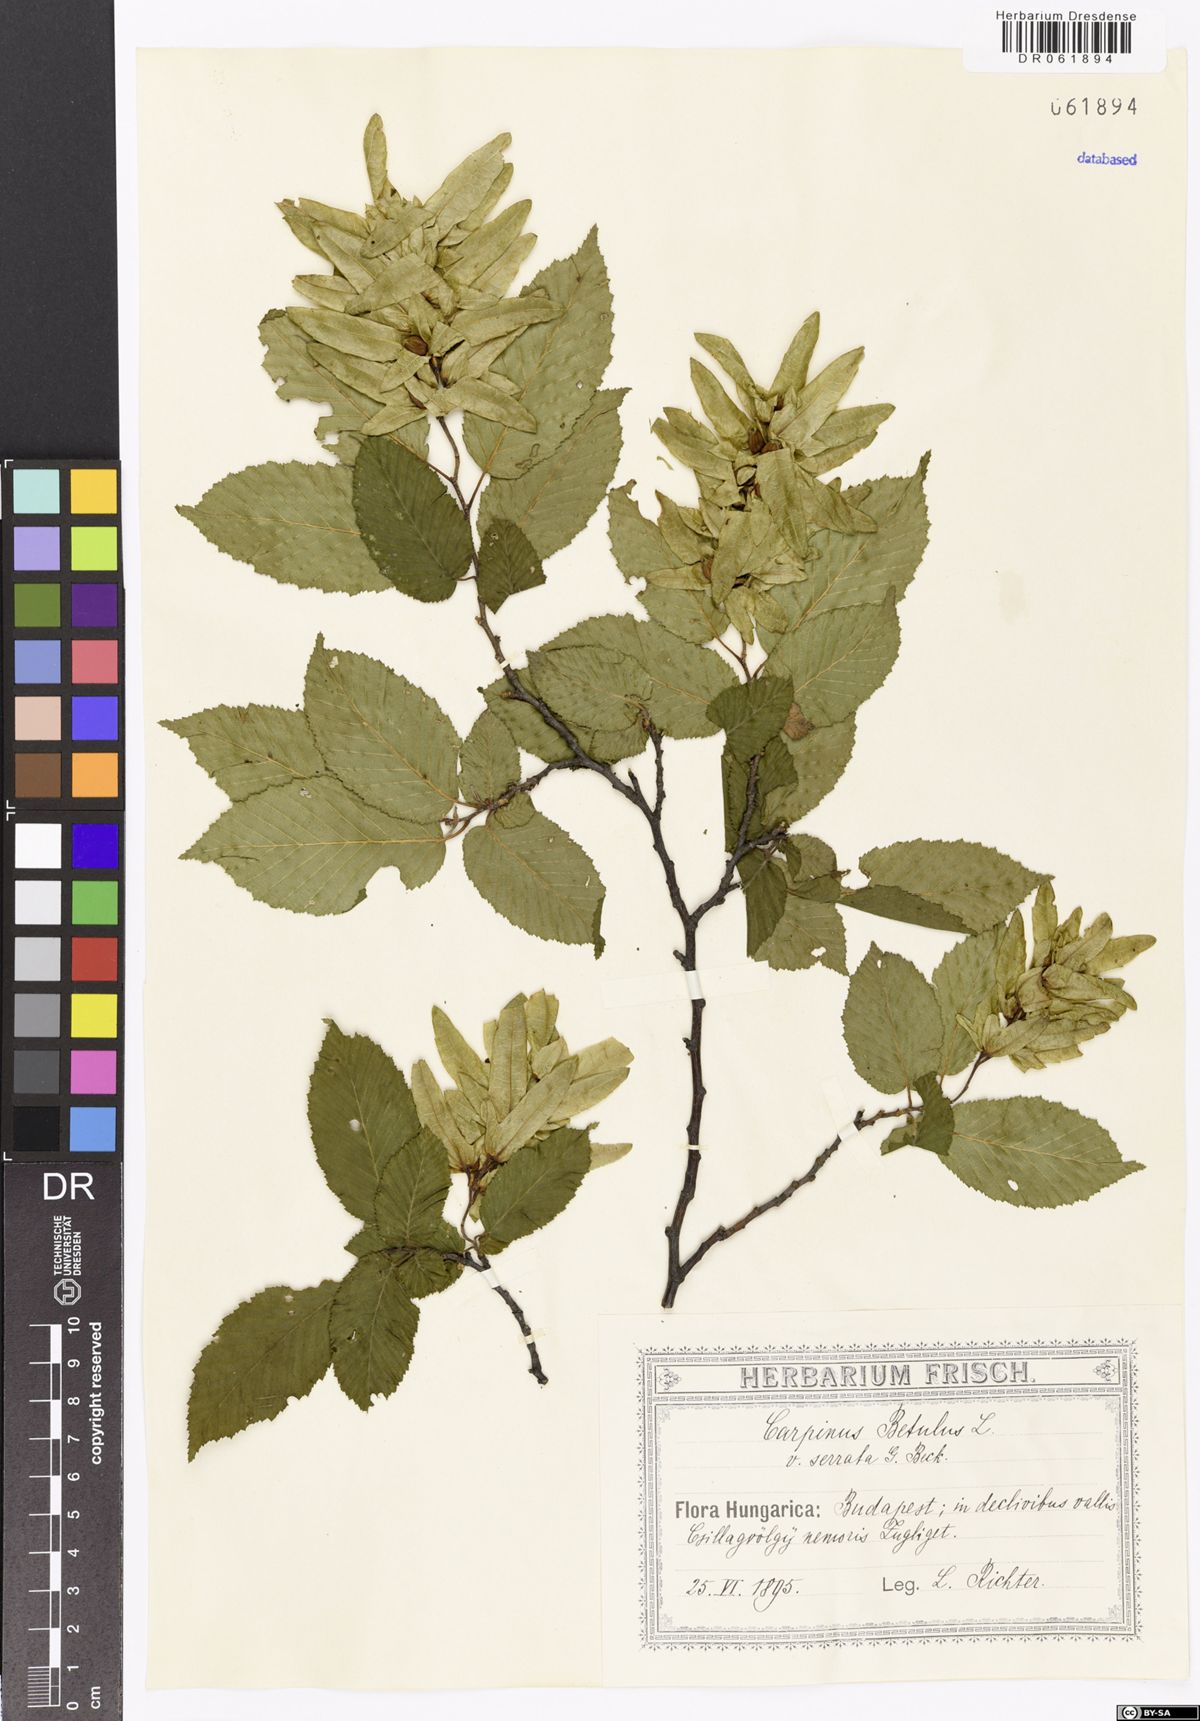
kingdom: Plantae
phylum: Tracheophyta
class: Magnoliopsida
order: Fagales
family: Betulaceae
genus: Carpinus
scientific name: Carpinus betulus
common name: Hornbeam
